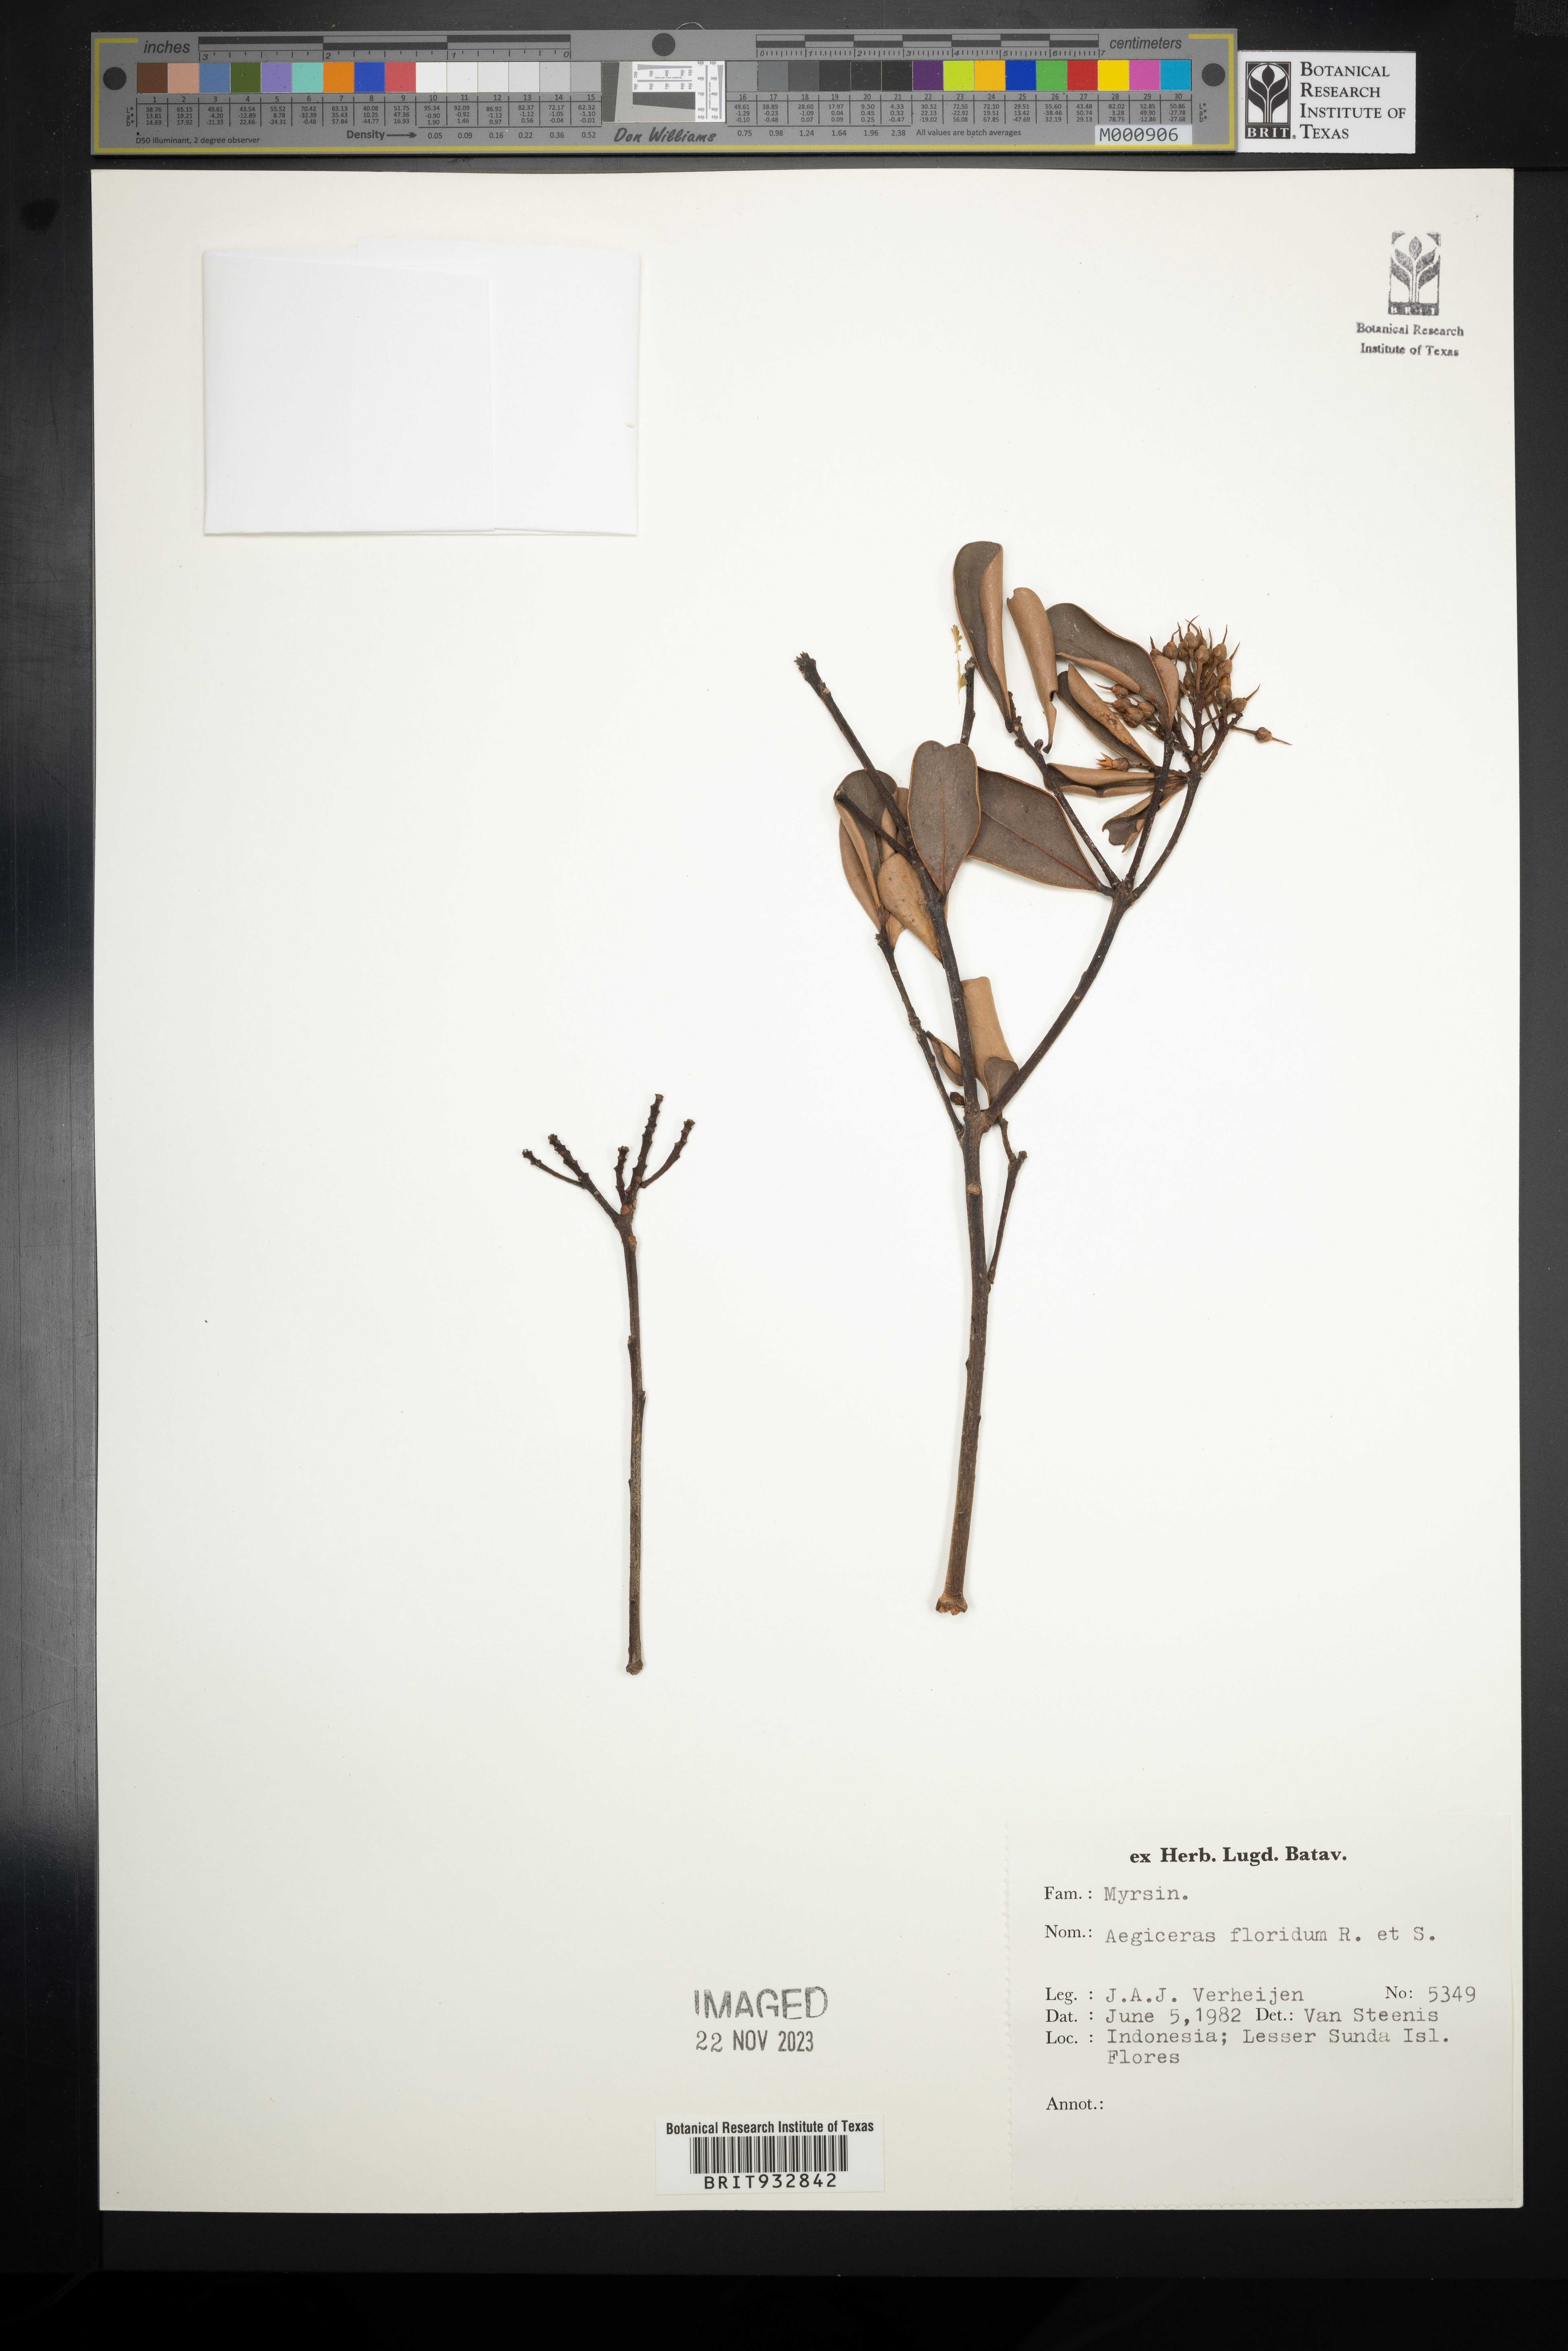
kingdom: Plantae
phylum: Tracheophyta
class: Magnoliopsida
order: Ericales
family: Primulaceae
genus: Aegiceras
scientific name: Aegiceras
